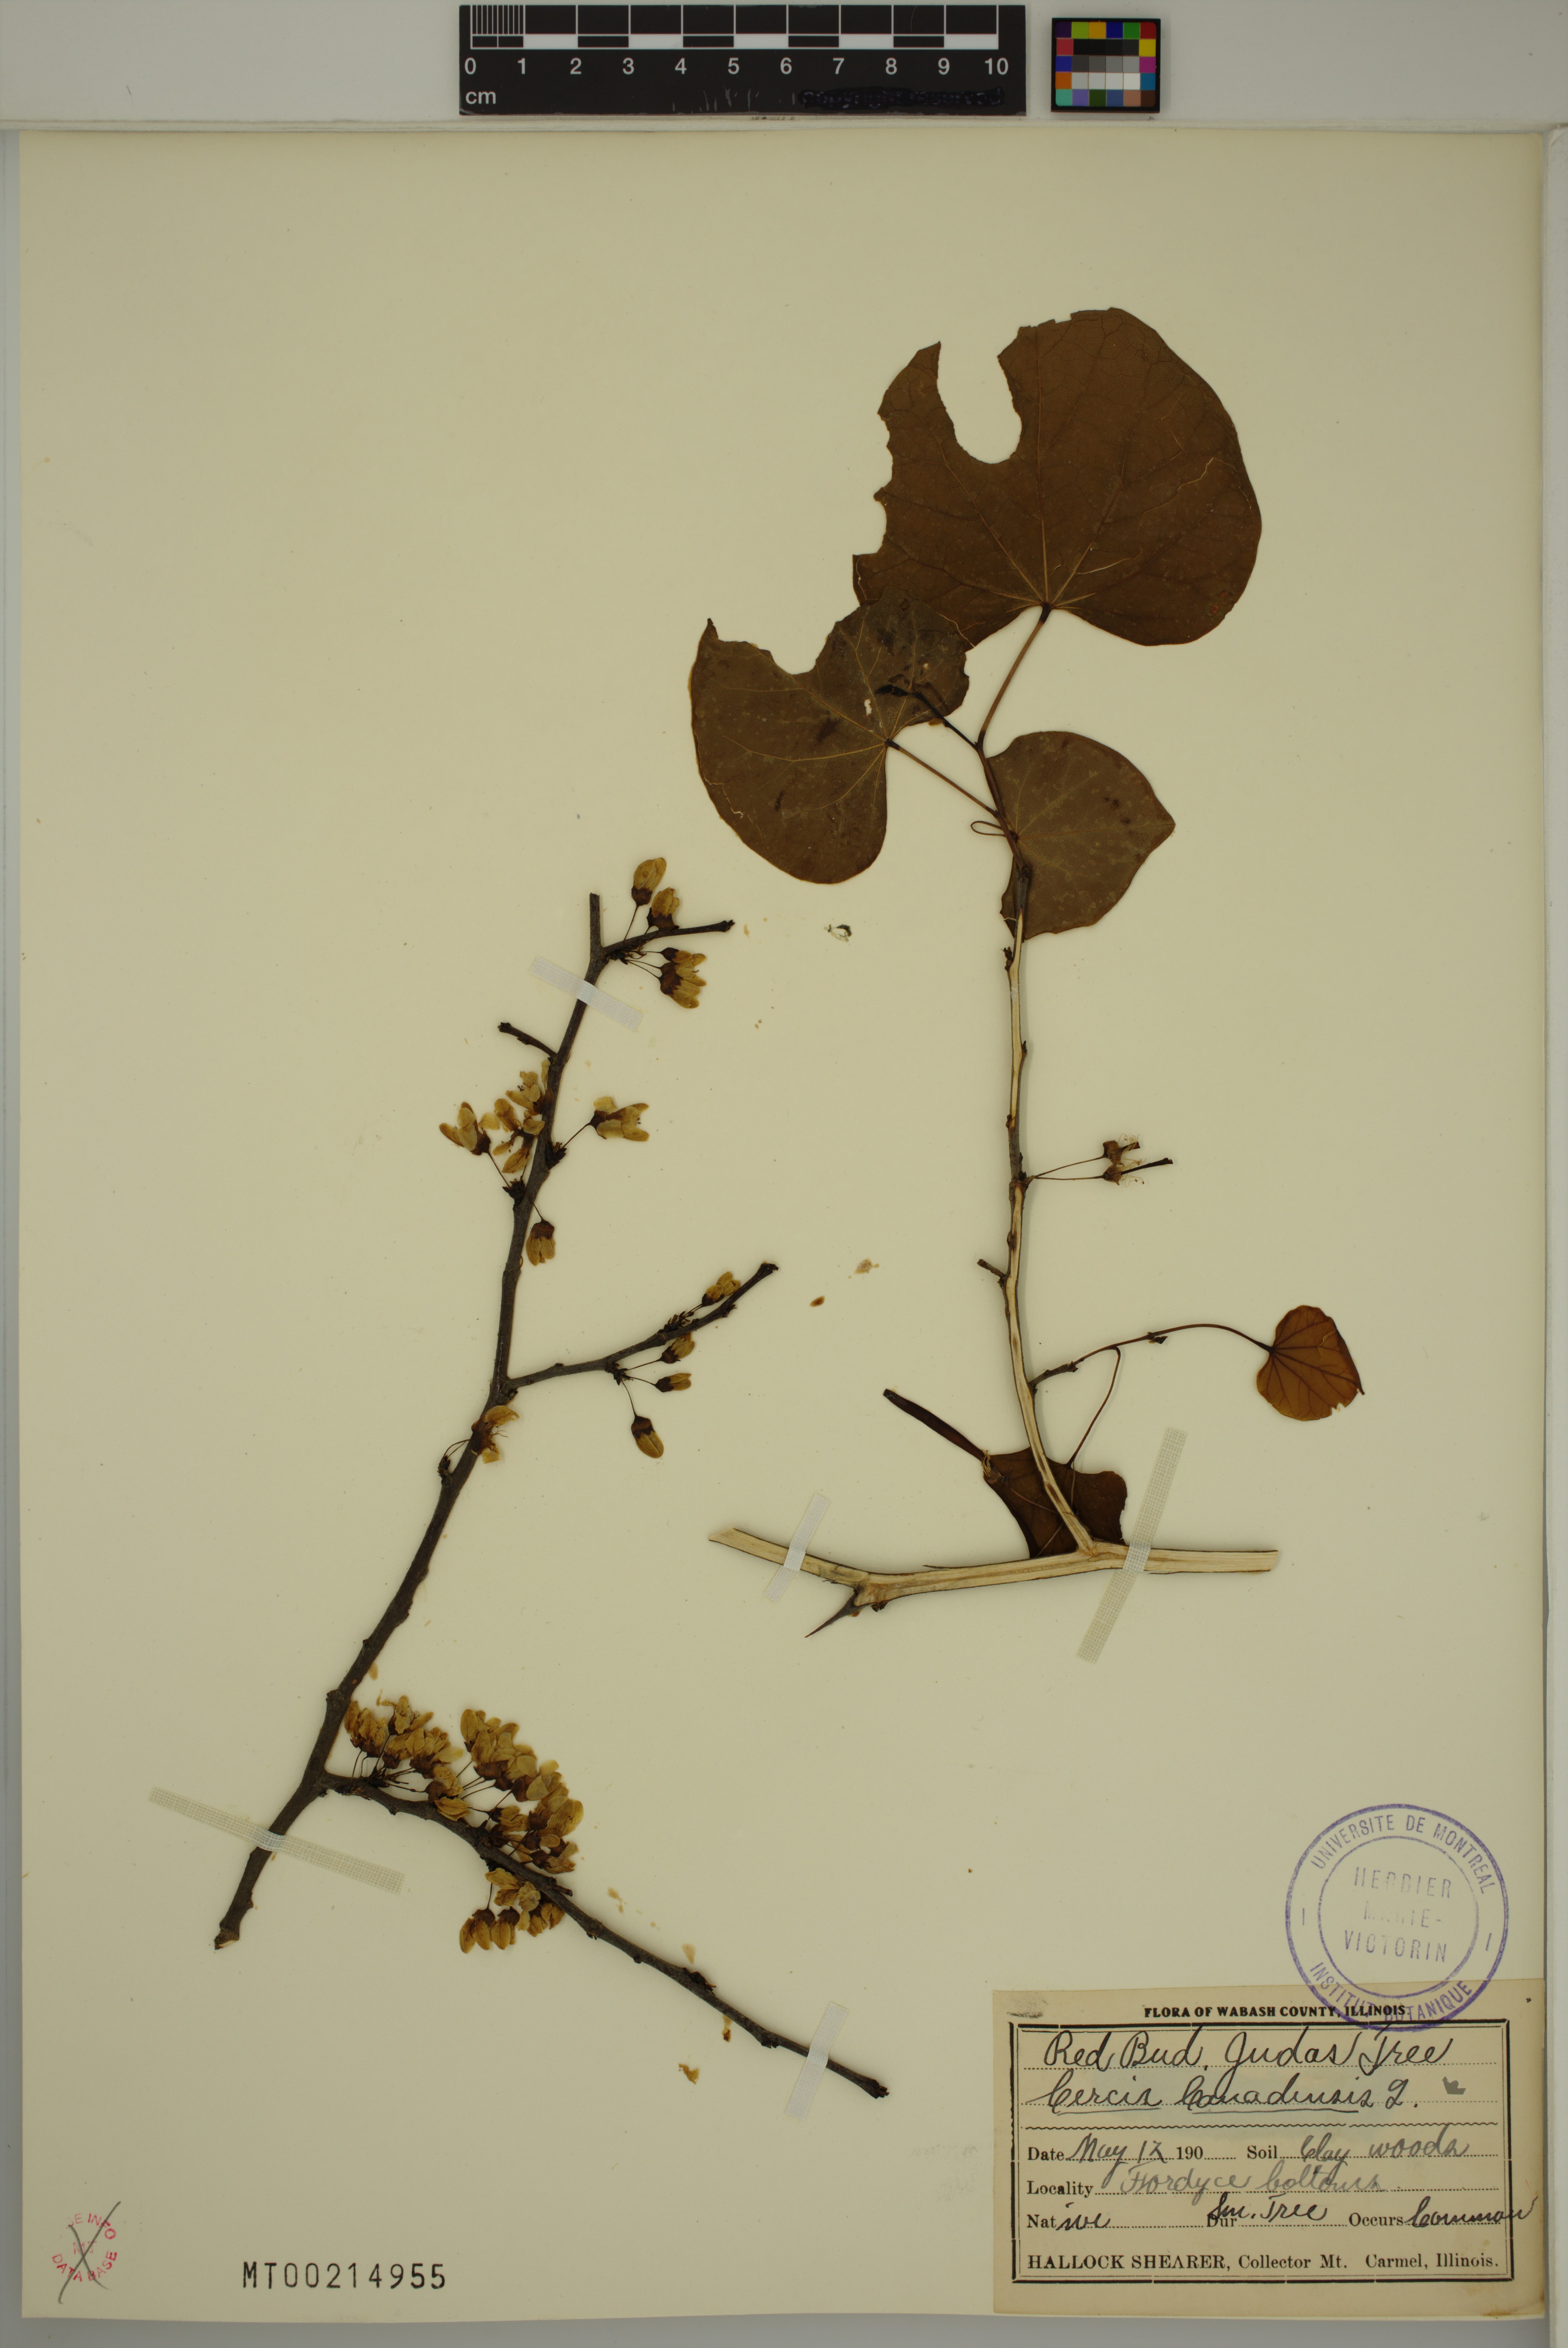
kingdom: Plantae
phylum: Tracheophyta
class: Magnoliopsida
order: Fabales
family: Fabaceae
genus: Cercis
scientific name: Cercis canadensis
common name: Eastern redbud
